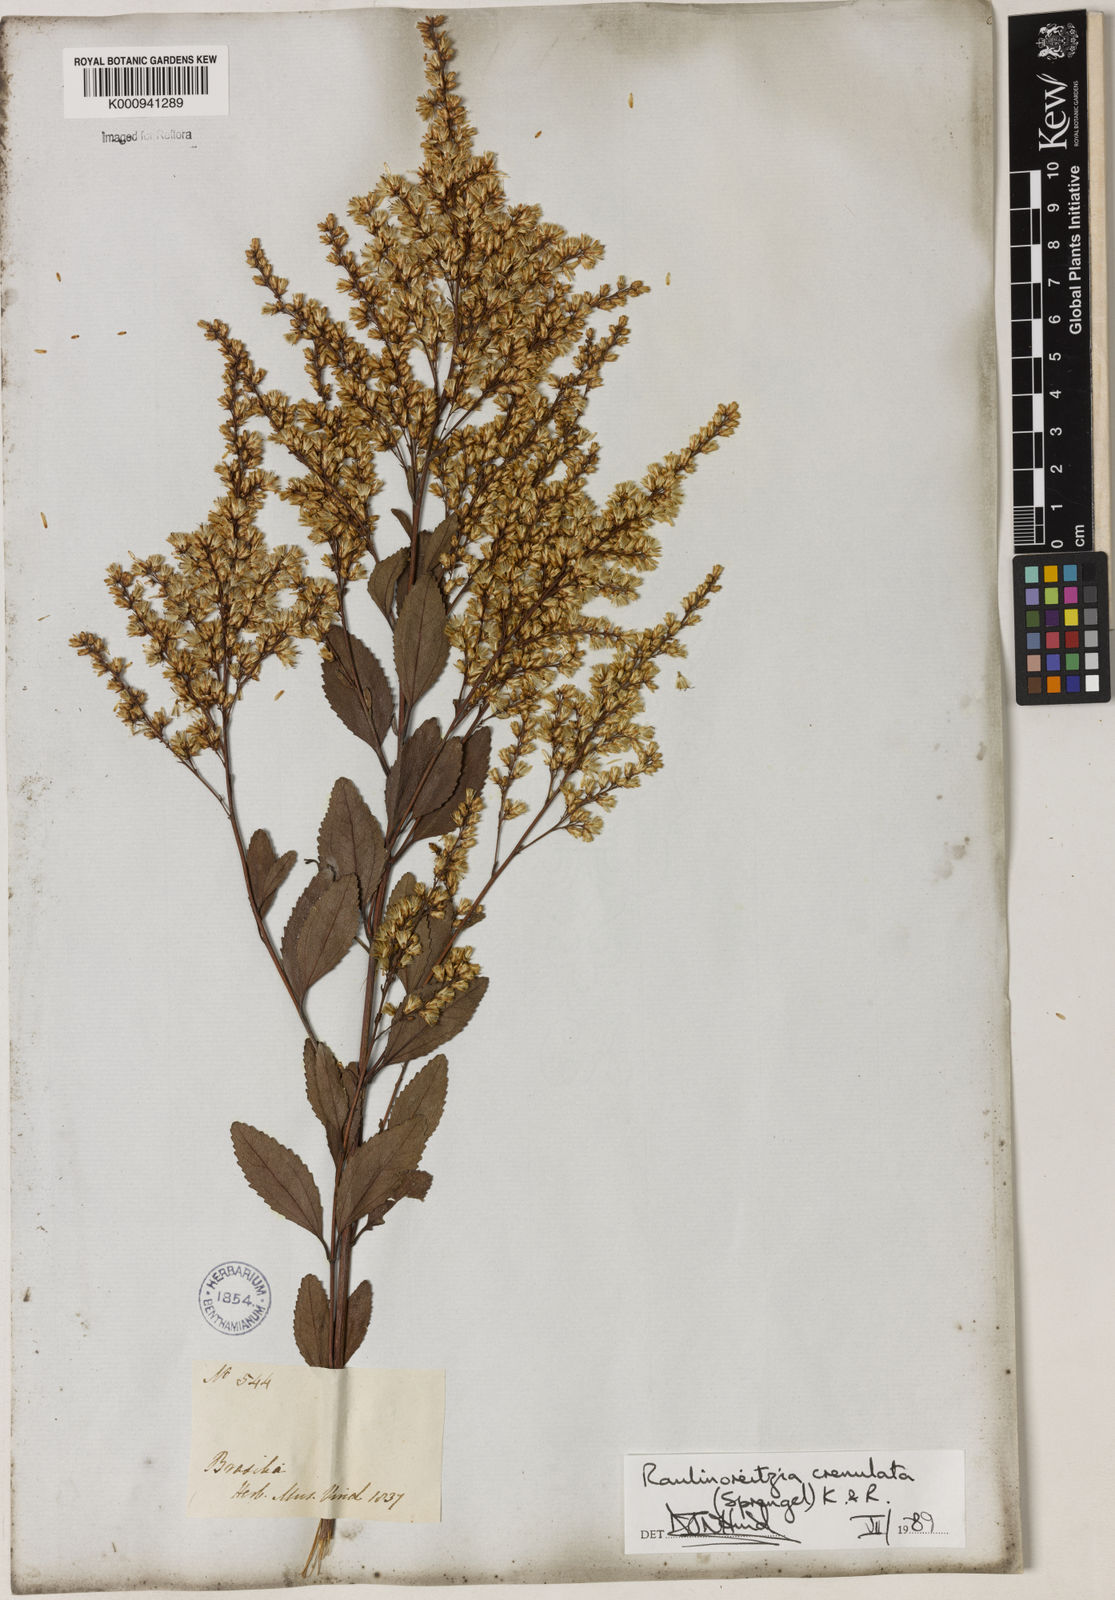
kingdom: Plantae
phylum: Tracheophyta
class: Magnoliopsida
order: Asterales
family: Asteraceae
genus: Raulinoreitzia
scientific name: Raulinoreitzia crenulata
